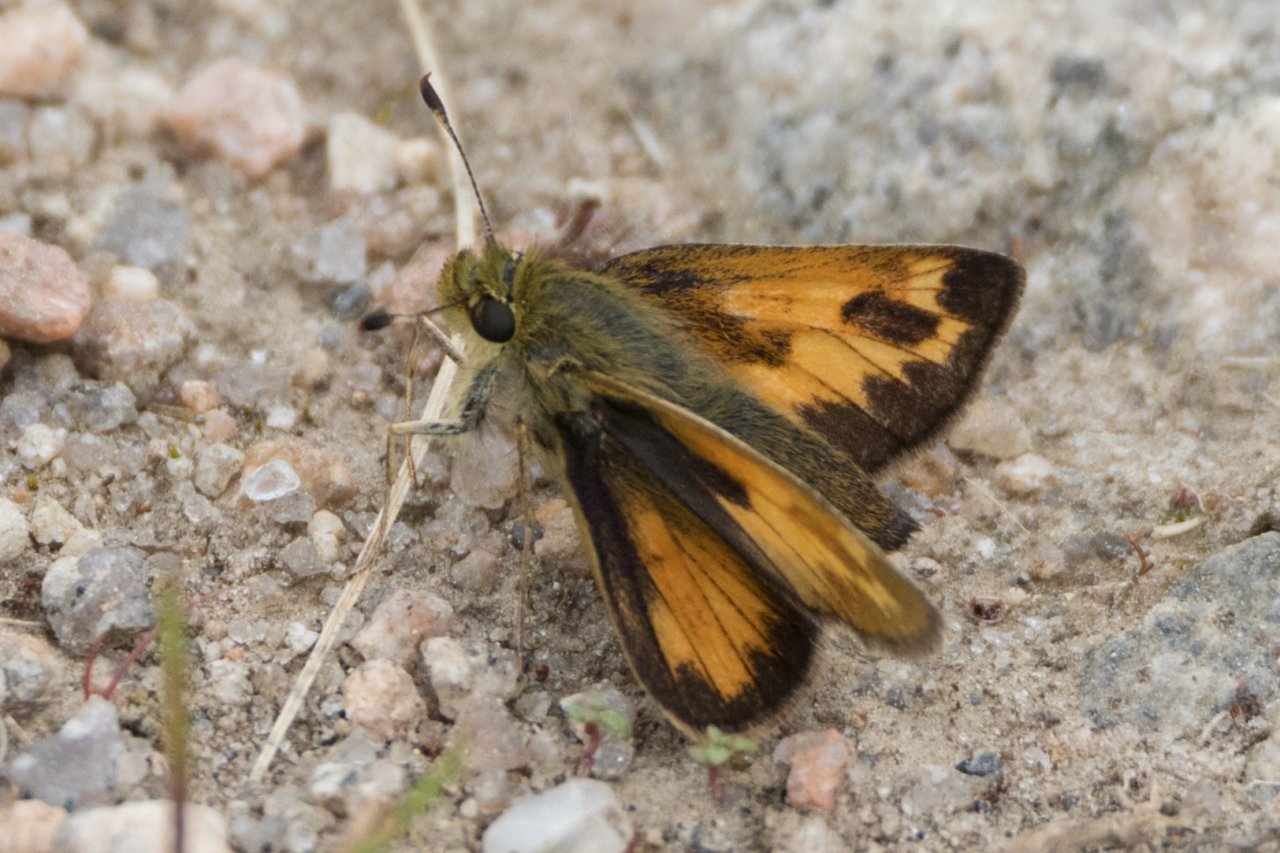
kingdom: Animalia
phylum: Arthropoda
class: Insecta
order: Lepidoptera
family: Hesperiidae
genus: Hesperia
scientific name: Hesperia sassacus
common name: Sassacus Skipper
